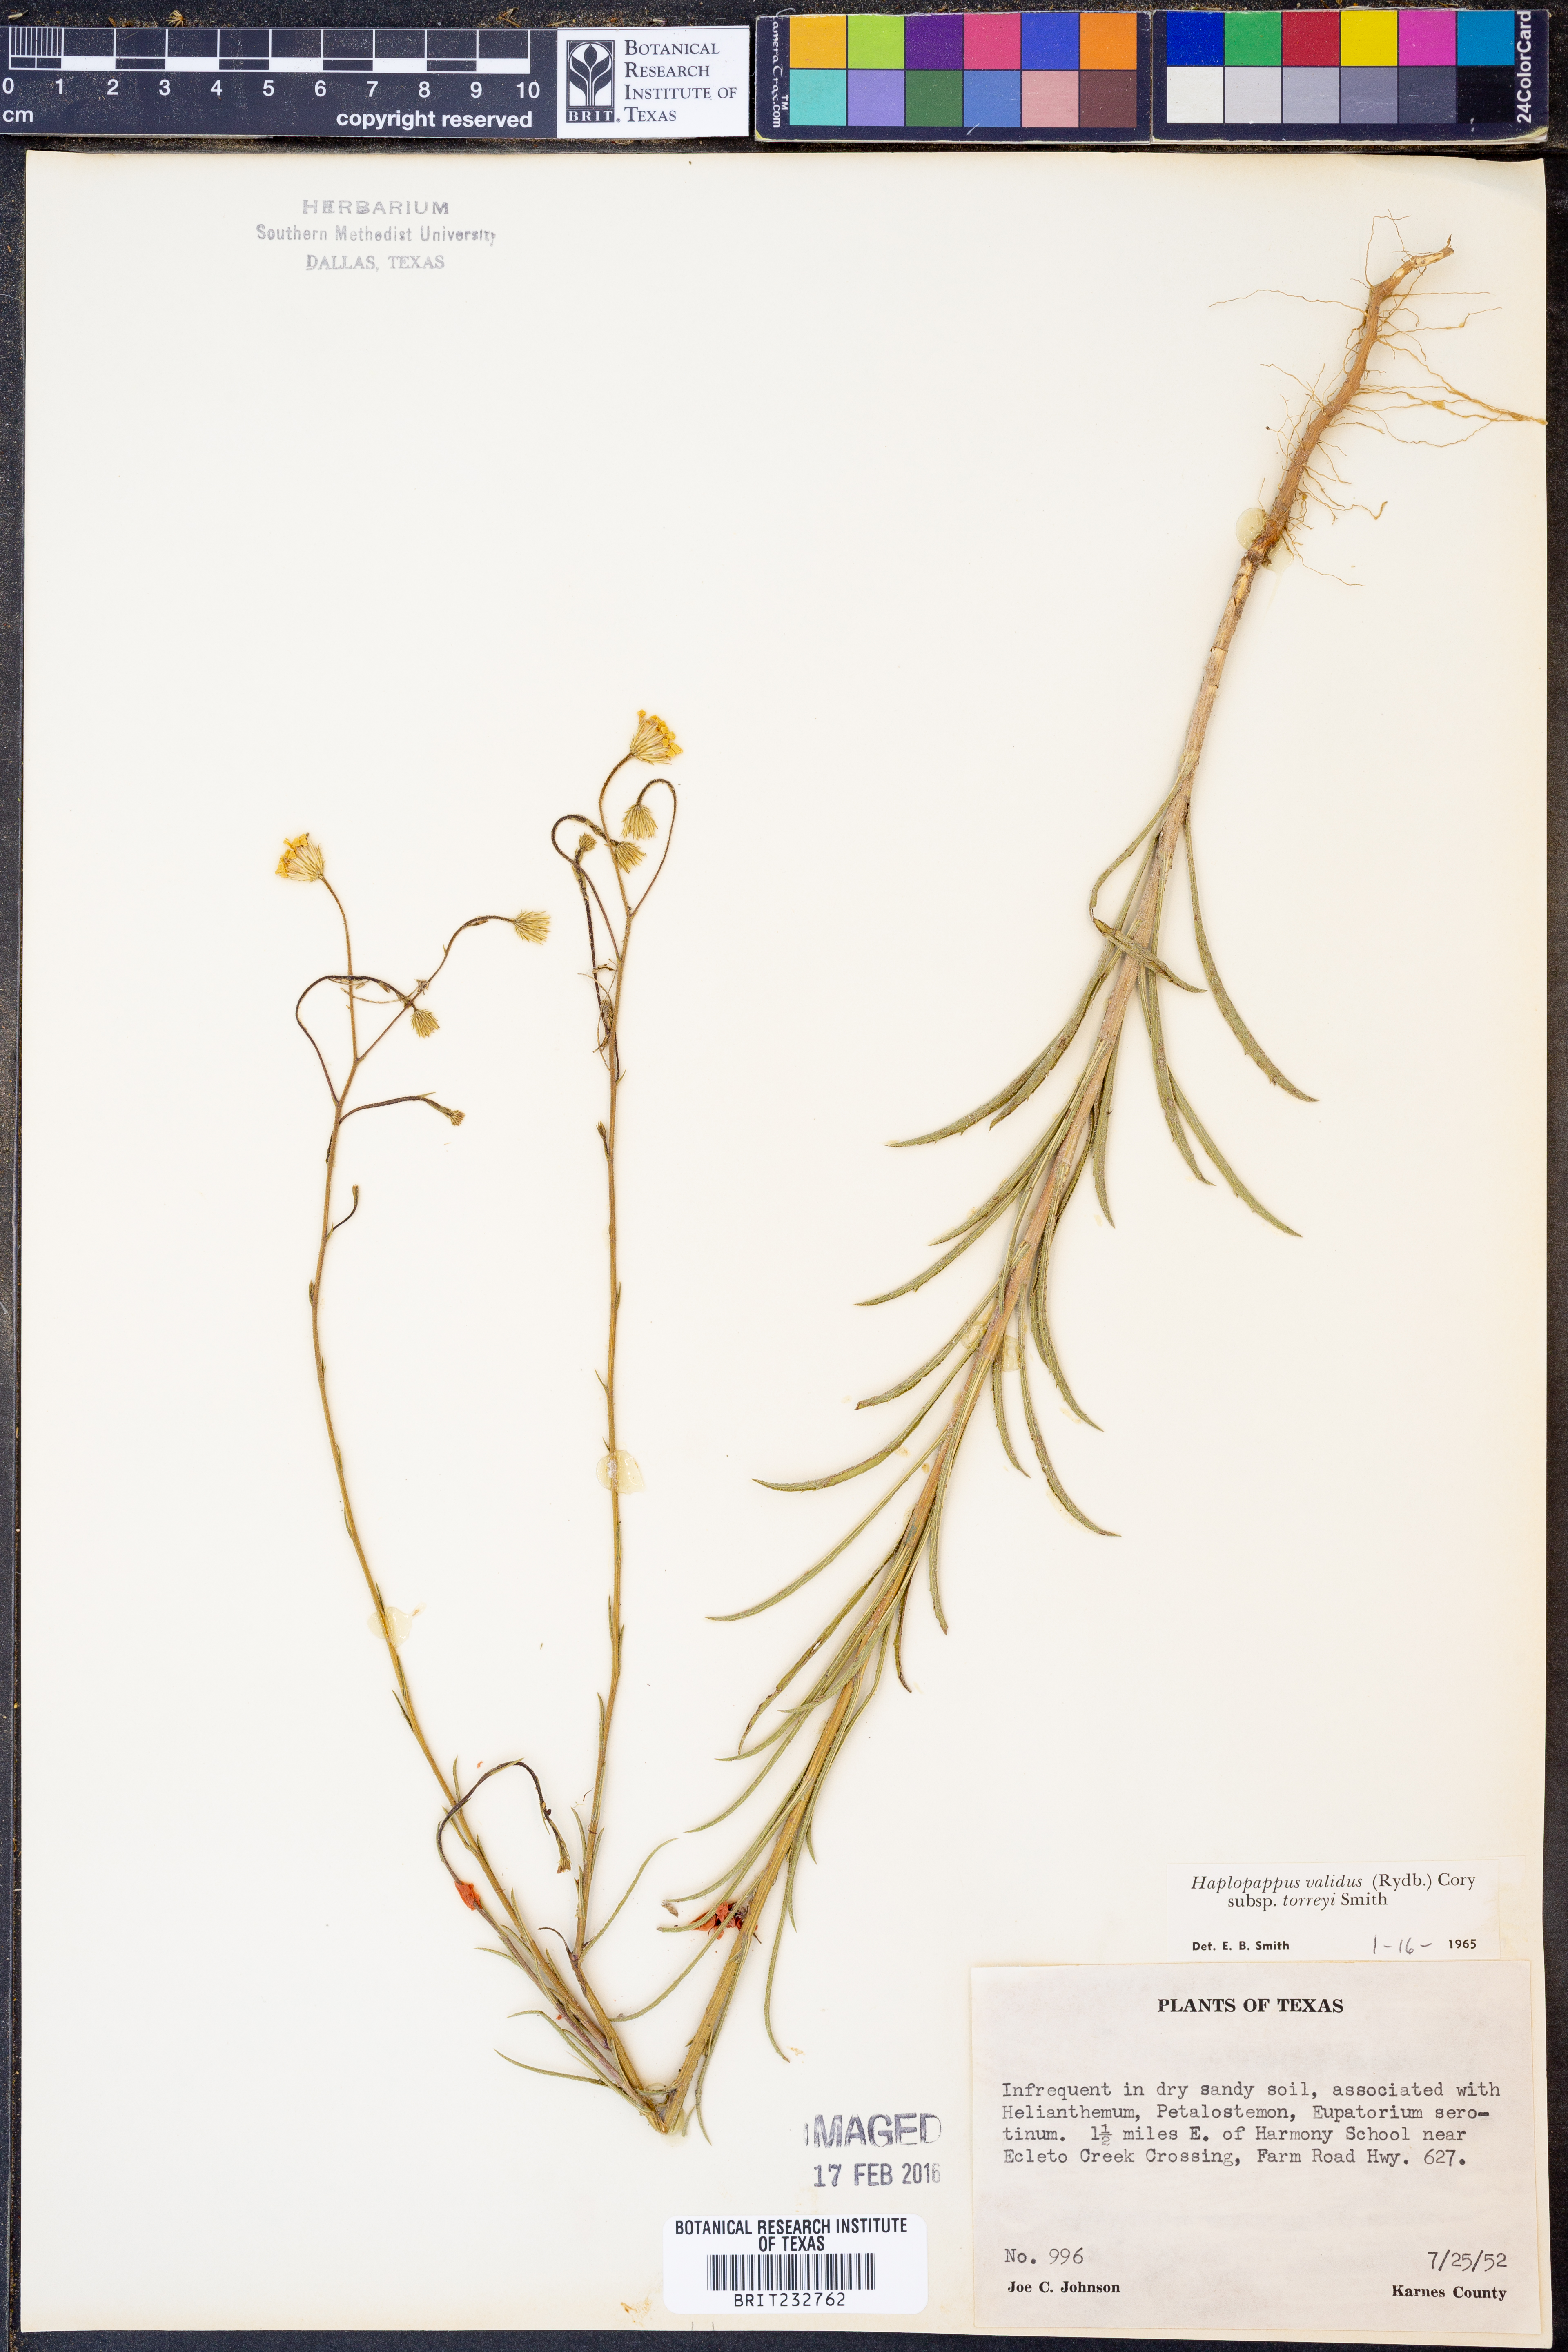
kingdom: Plantae
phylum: Tracheophyta
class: Magnoliopsida
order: Asterales
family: Asteraceae
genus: Croptilon
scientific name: Croptilon hookerianum
